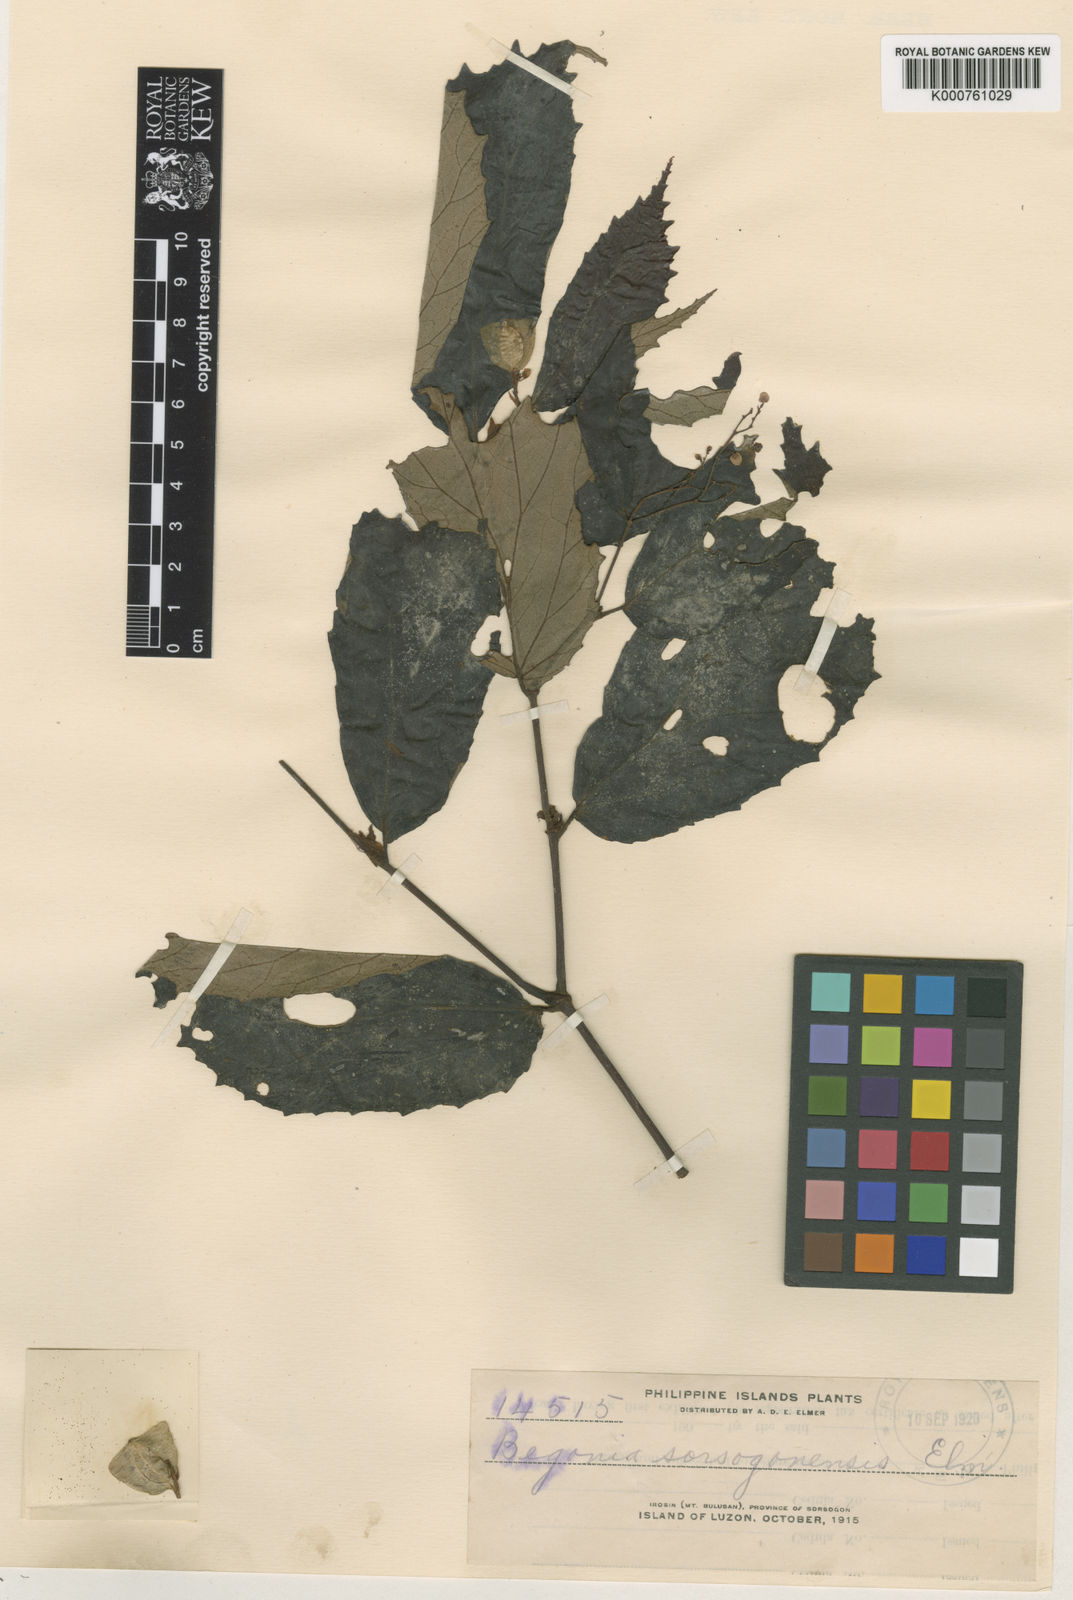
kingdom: Plantae
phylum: Tracheophyta
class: Magnoliopsida
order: Cucurbitales
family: Begoniaceae
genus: Begonia
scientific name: Begonia sorsogonensis
